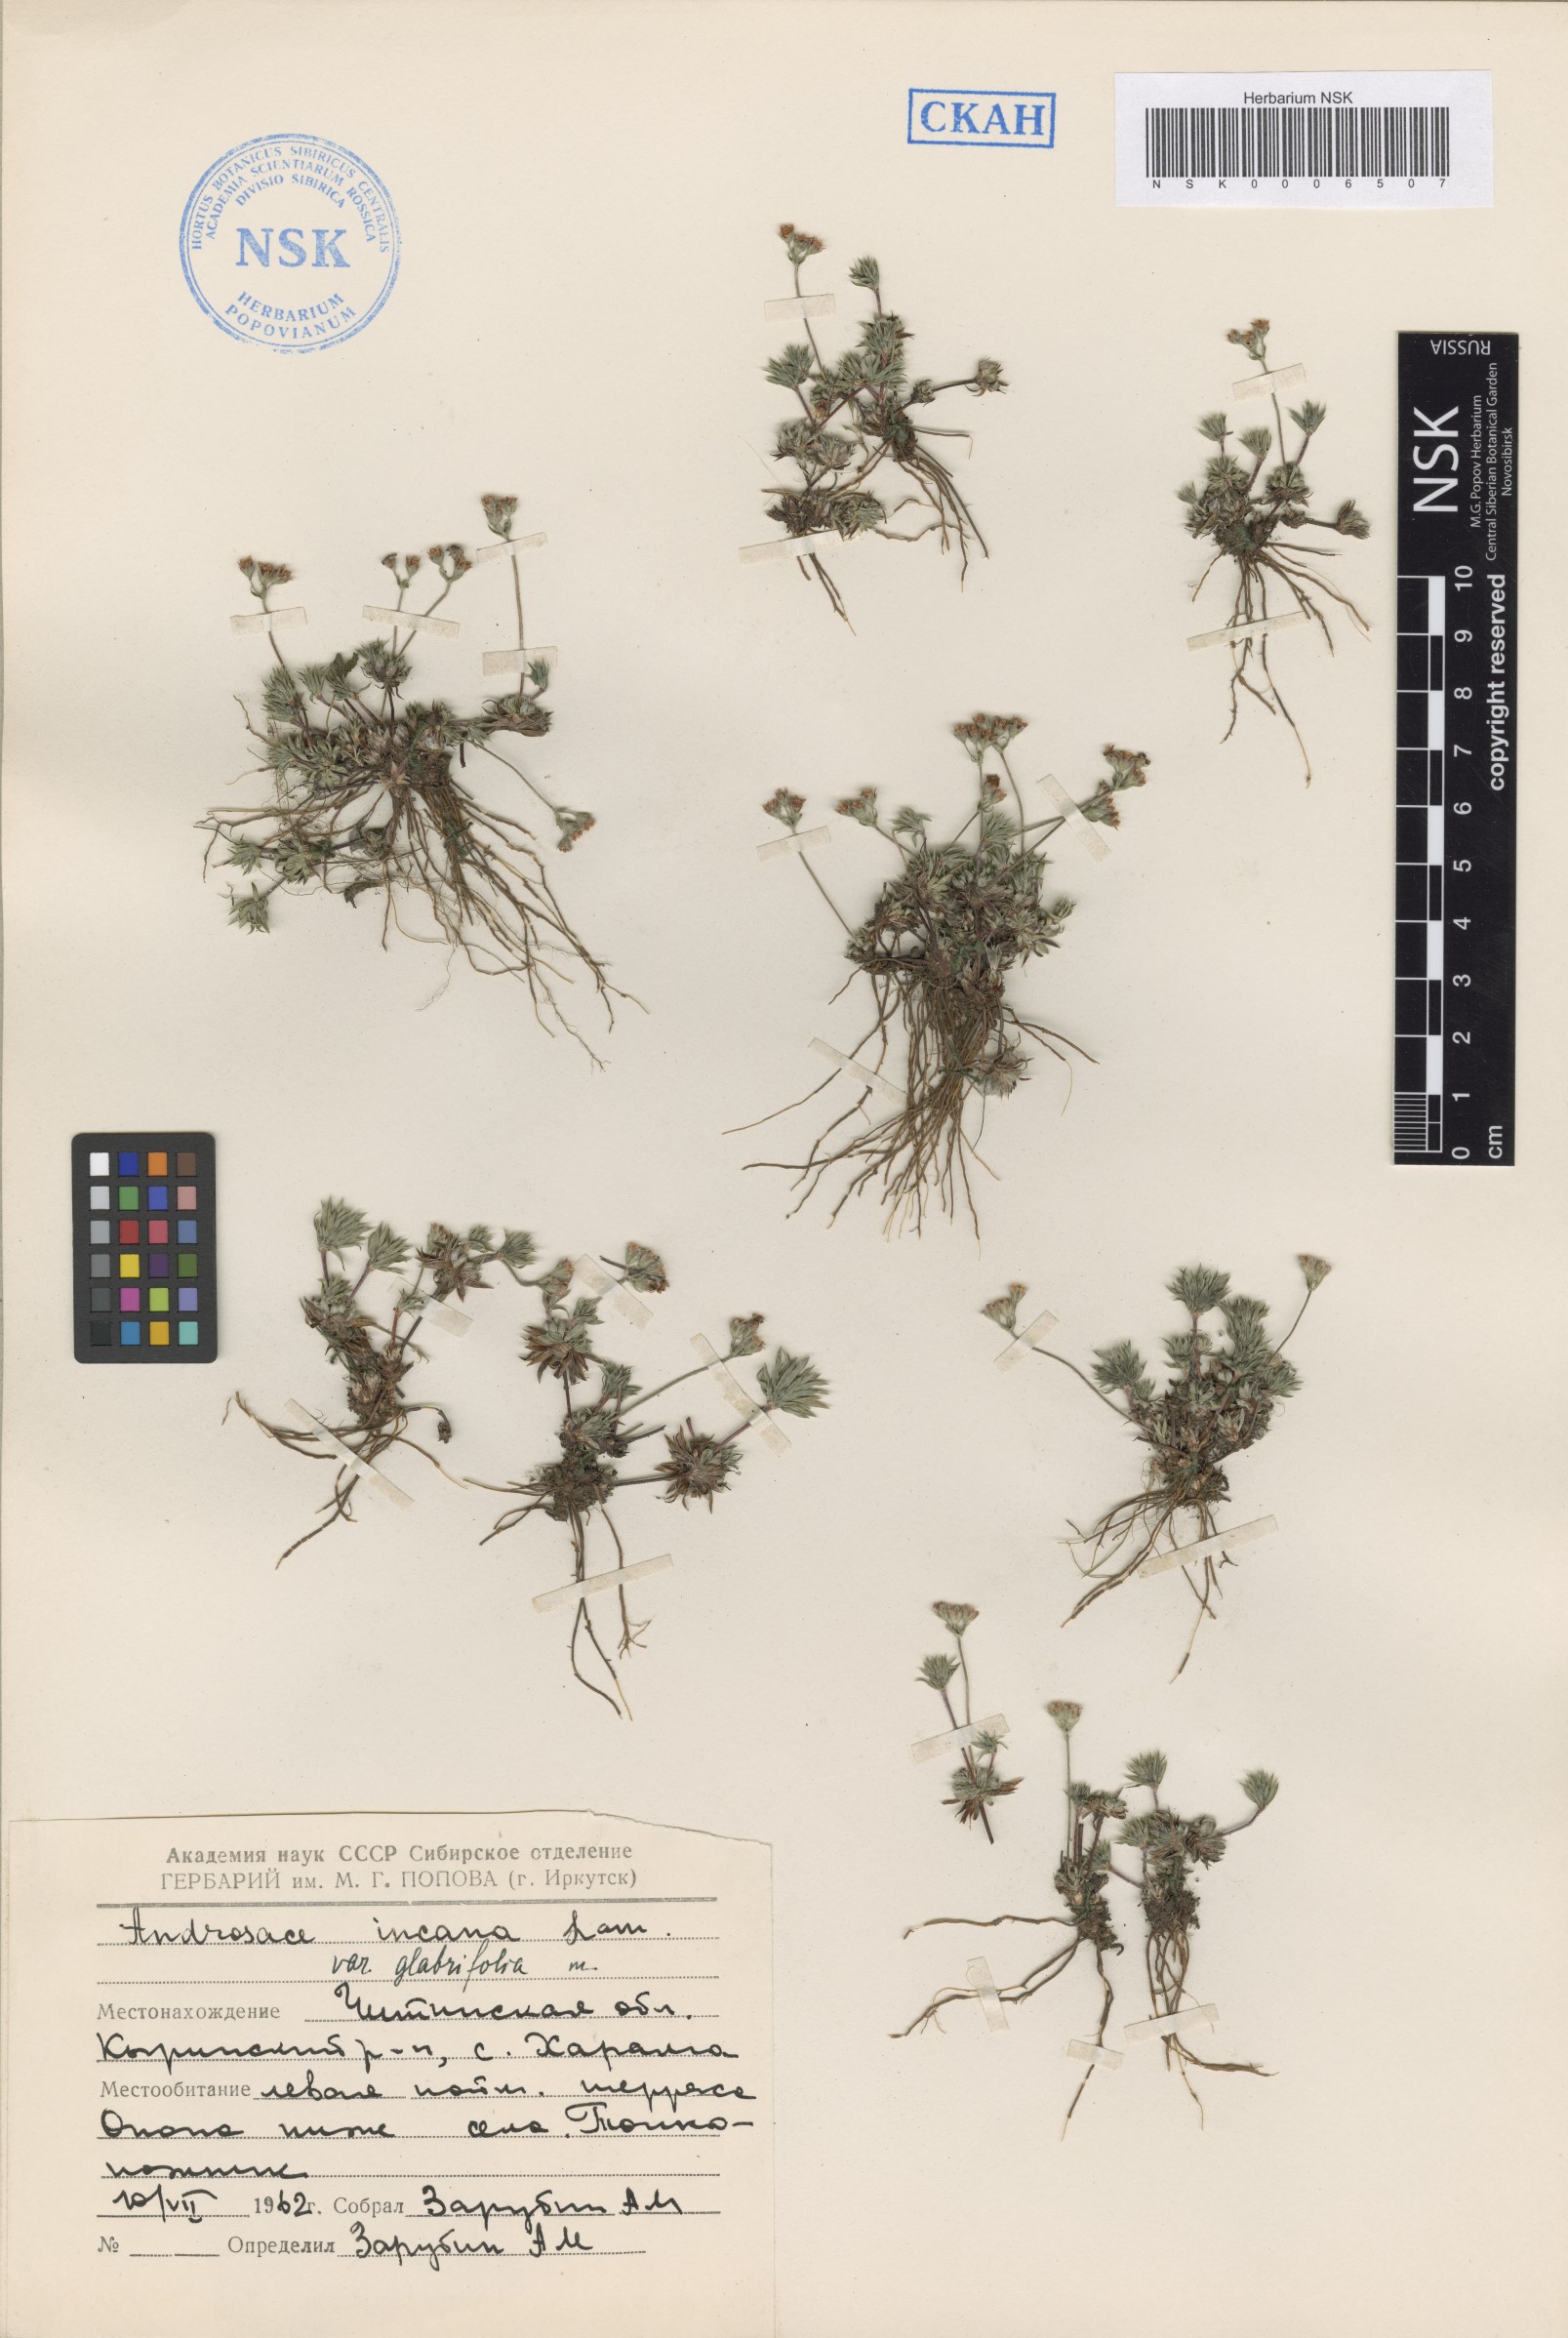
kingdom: Plantae
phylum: Tracheophyta
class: Magnoliopsida
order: Ericales
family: Primulaceae
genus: Androsace
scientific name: Androsace incana
